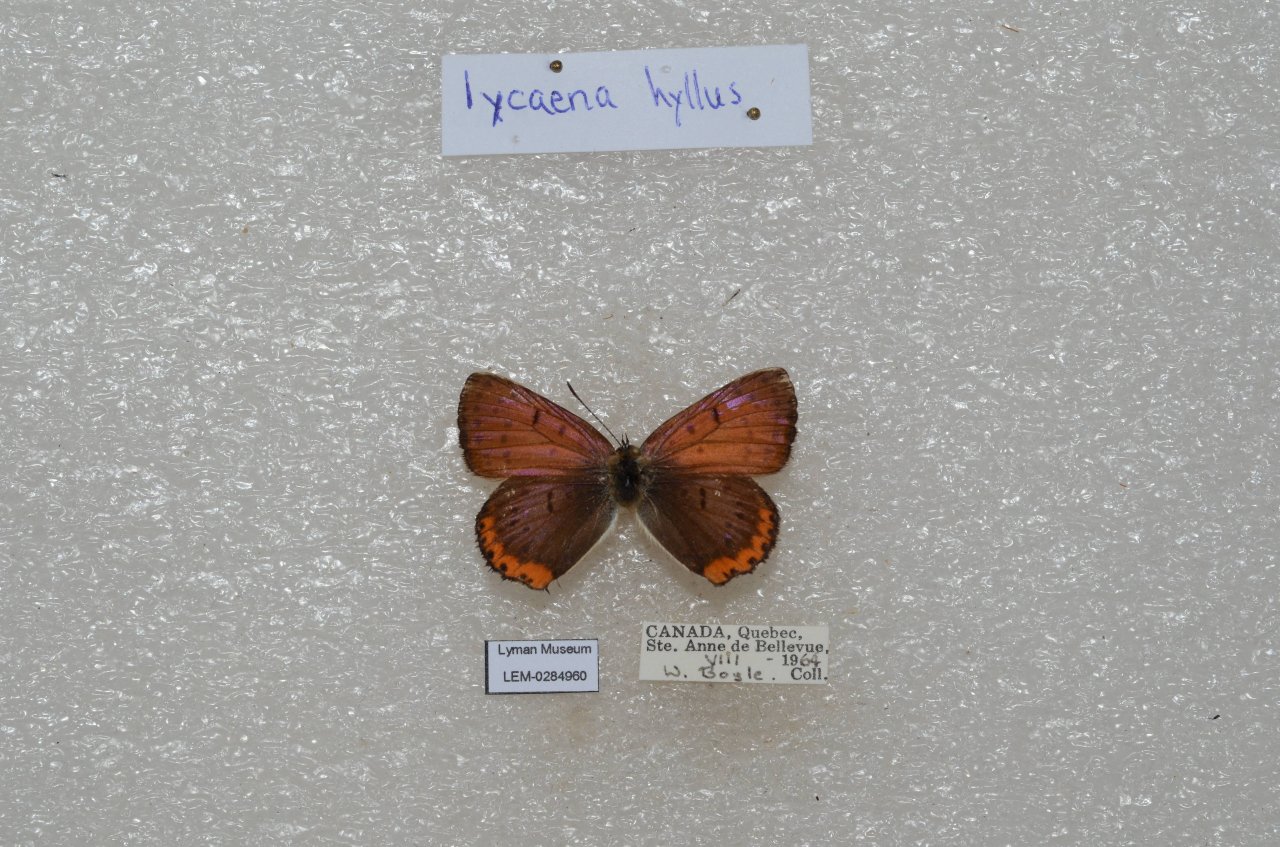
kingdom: Animalia
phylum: Arthropoda
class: Insecta
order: Lepidoptera
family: Sesiidae
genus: Sesia
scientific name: Sesia Lycaena hyllus
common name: Bronze Copper
